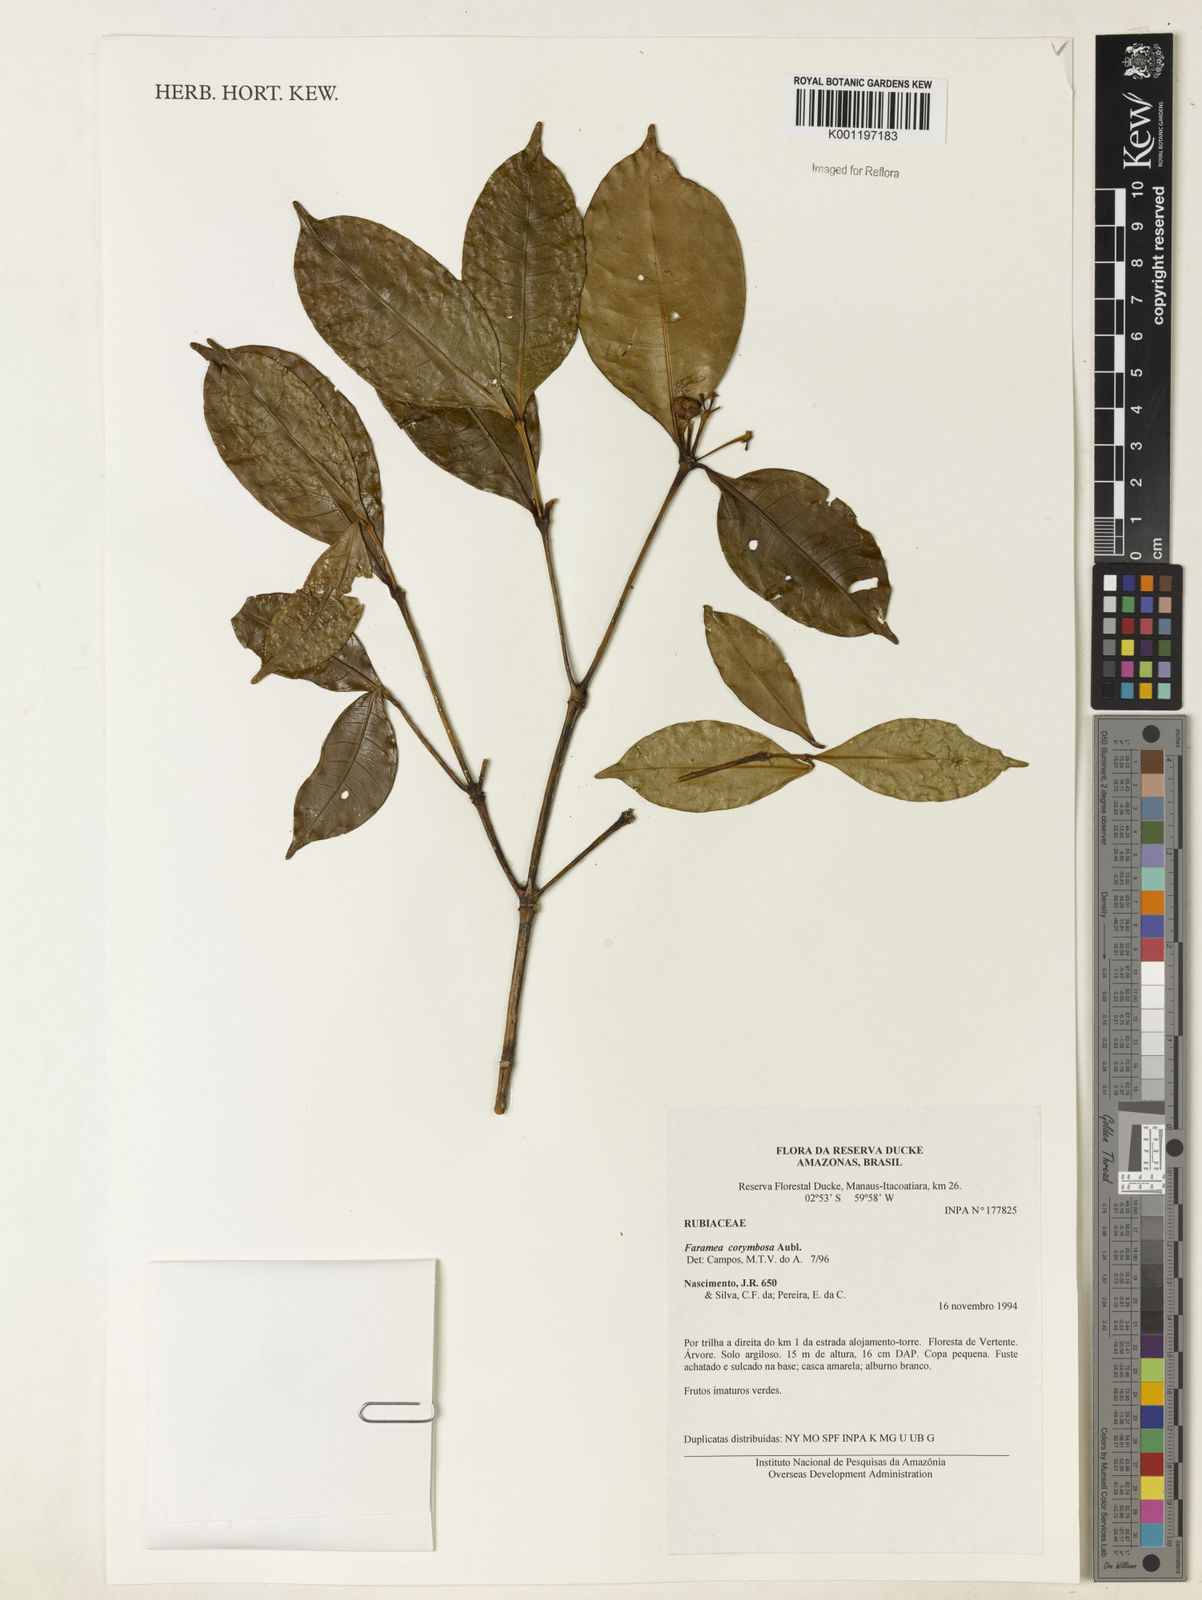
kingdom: Plantae
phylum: Tracheophyta
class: Magnoliopsida
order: Gentianales
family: Rubiaceae
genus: Faramea
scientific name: Faramea corymbosa
